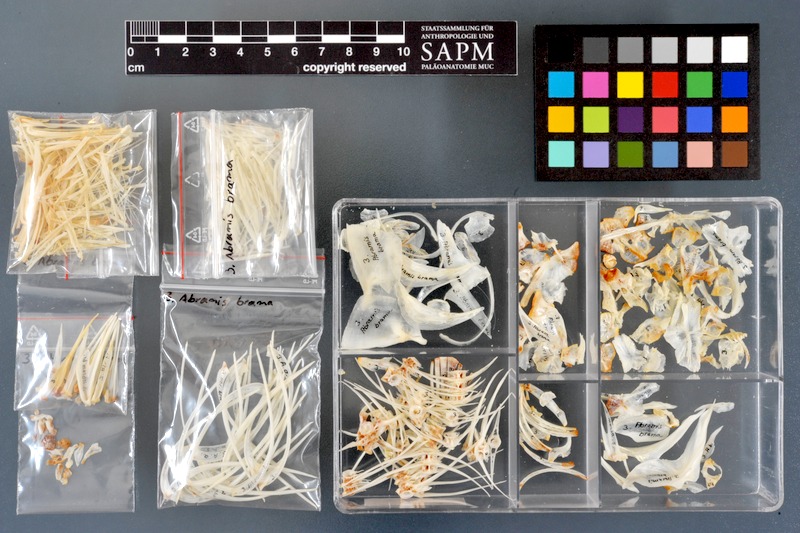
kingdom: Animalia
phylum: Chordata
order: Cypriniformes
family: Cyprinidae
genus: Abramis
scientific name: Abramis brama
